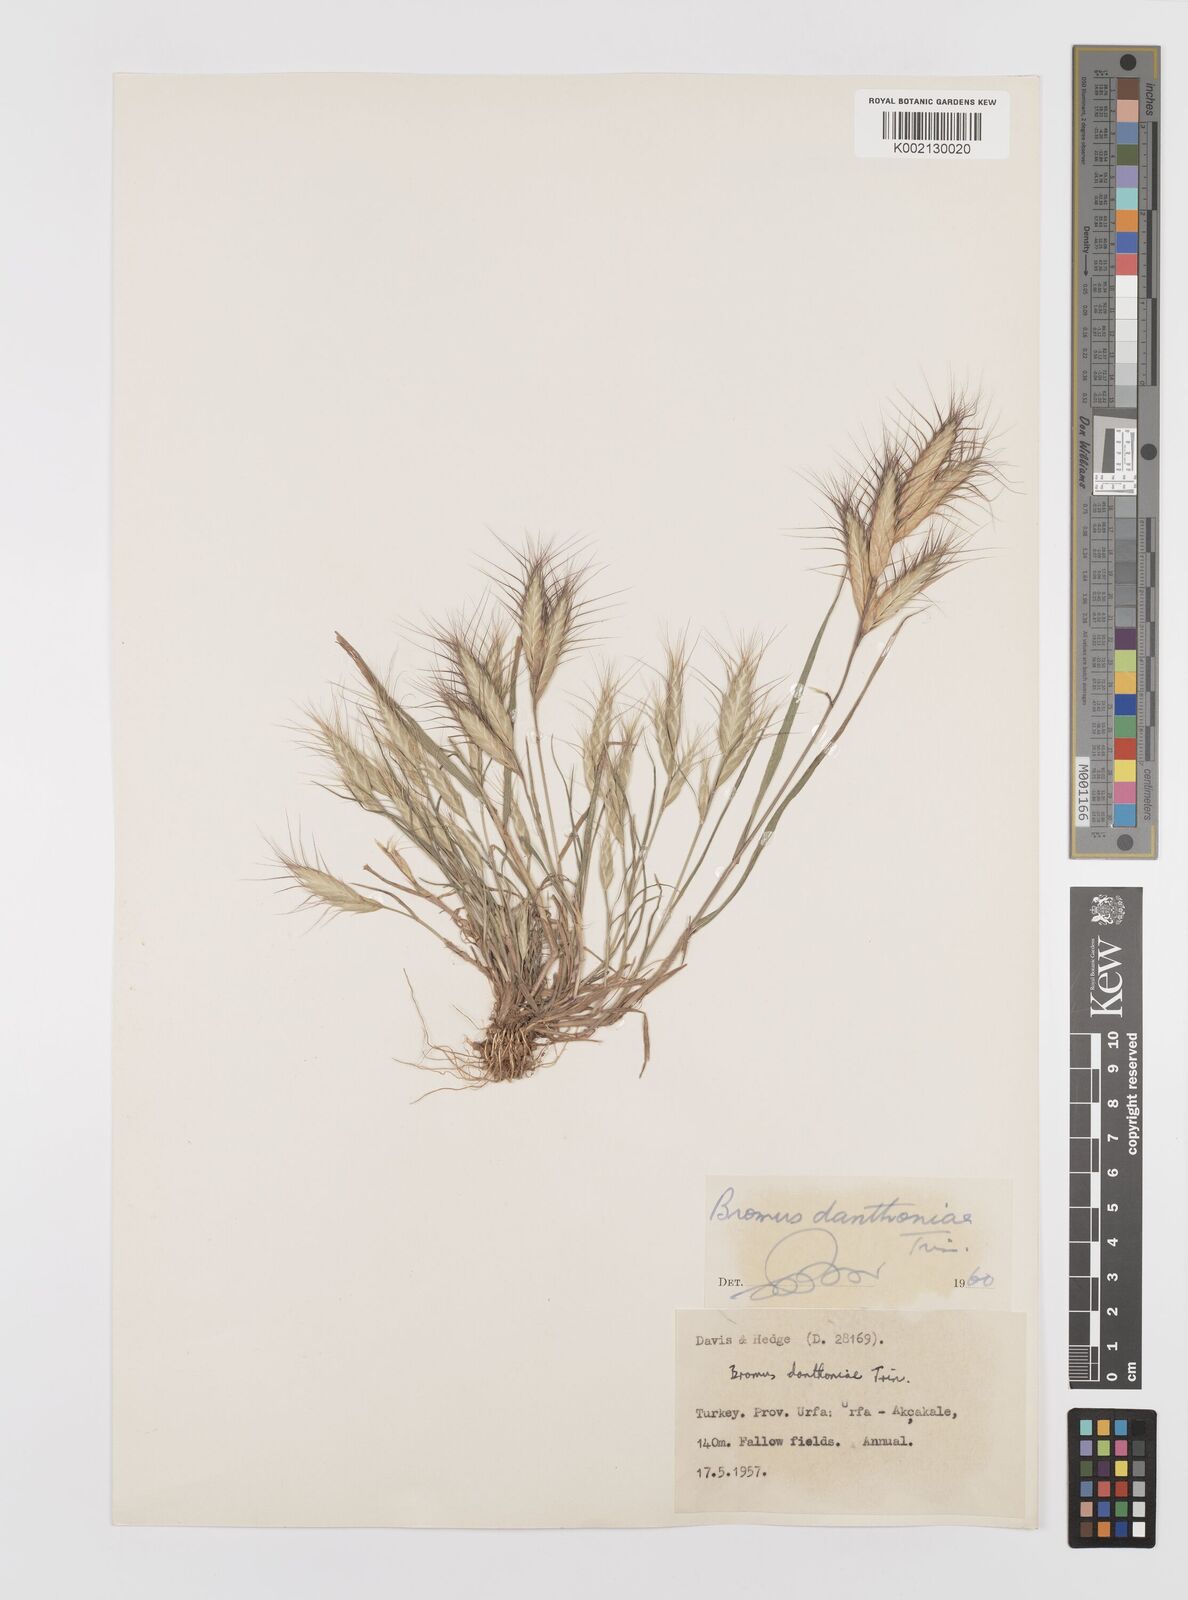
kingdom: Plantae
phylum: Tracheophyta
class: Liliopsida
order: Poales
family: Poaceae
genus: Bromus
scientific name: Bromus danthoniae
